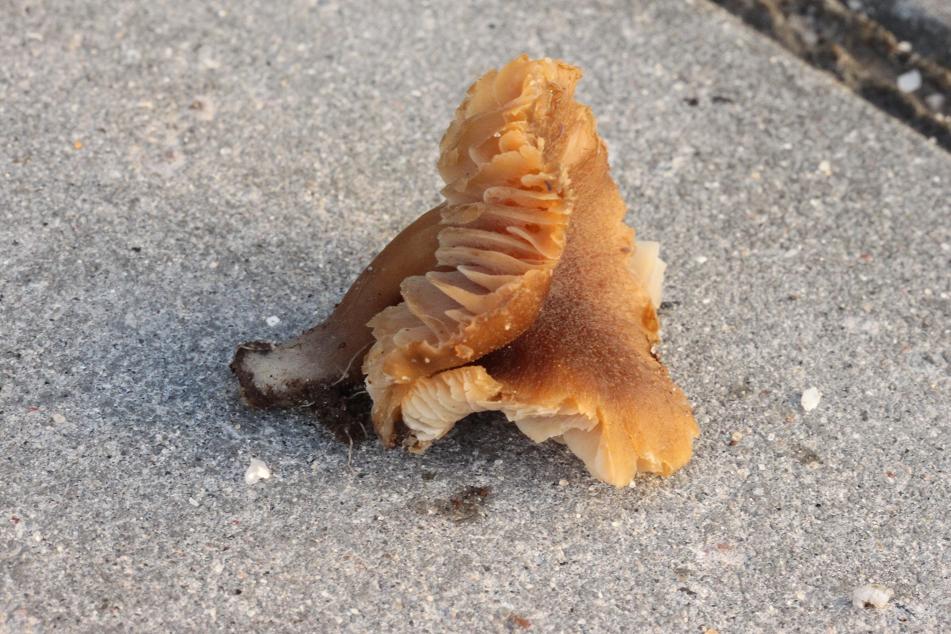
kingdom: Fungi
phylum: Basidiomycota
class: Agaricomycetes
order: Agaricales
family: Clavariaceae
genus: Camarophyllopsis
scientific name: Camarophyllopsis schulzeri
